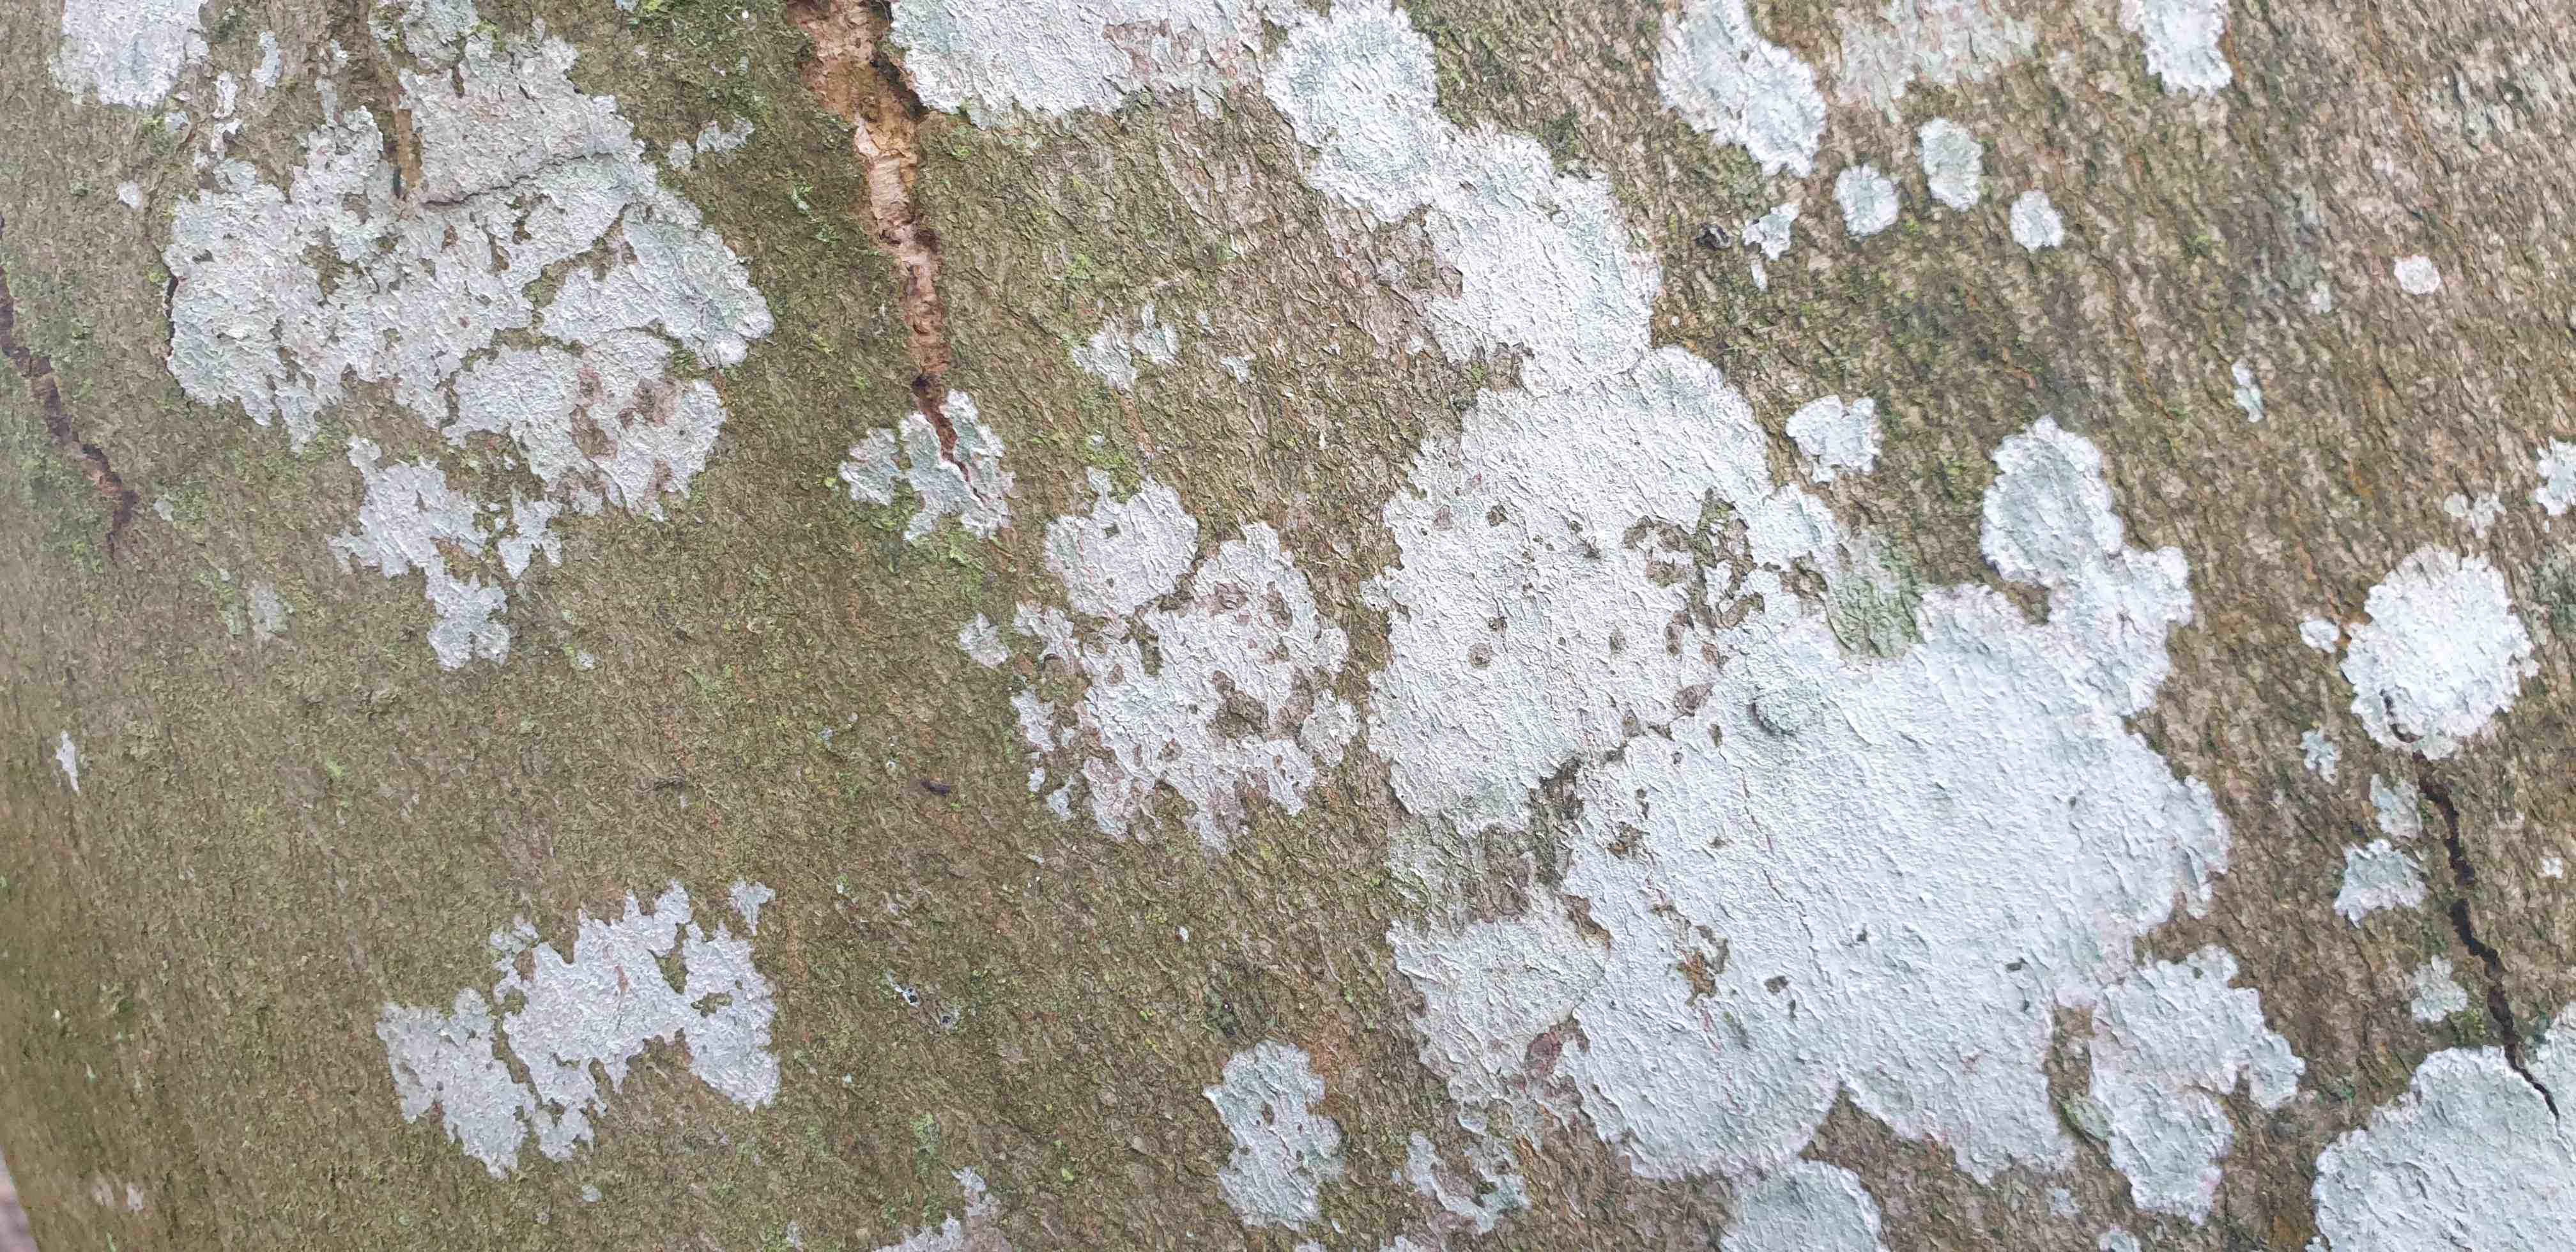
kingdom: Fungi
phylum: Ascomycota
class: Lecanoromycetes
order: Ostropales
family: Phlyctidaceae
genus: Phlyctis
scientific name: Phlyctis argena
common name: almindelig sølvlav
